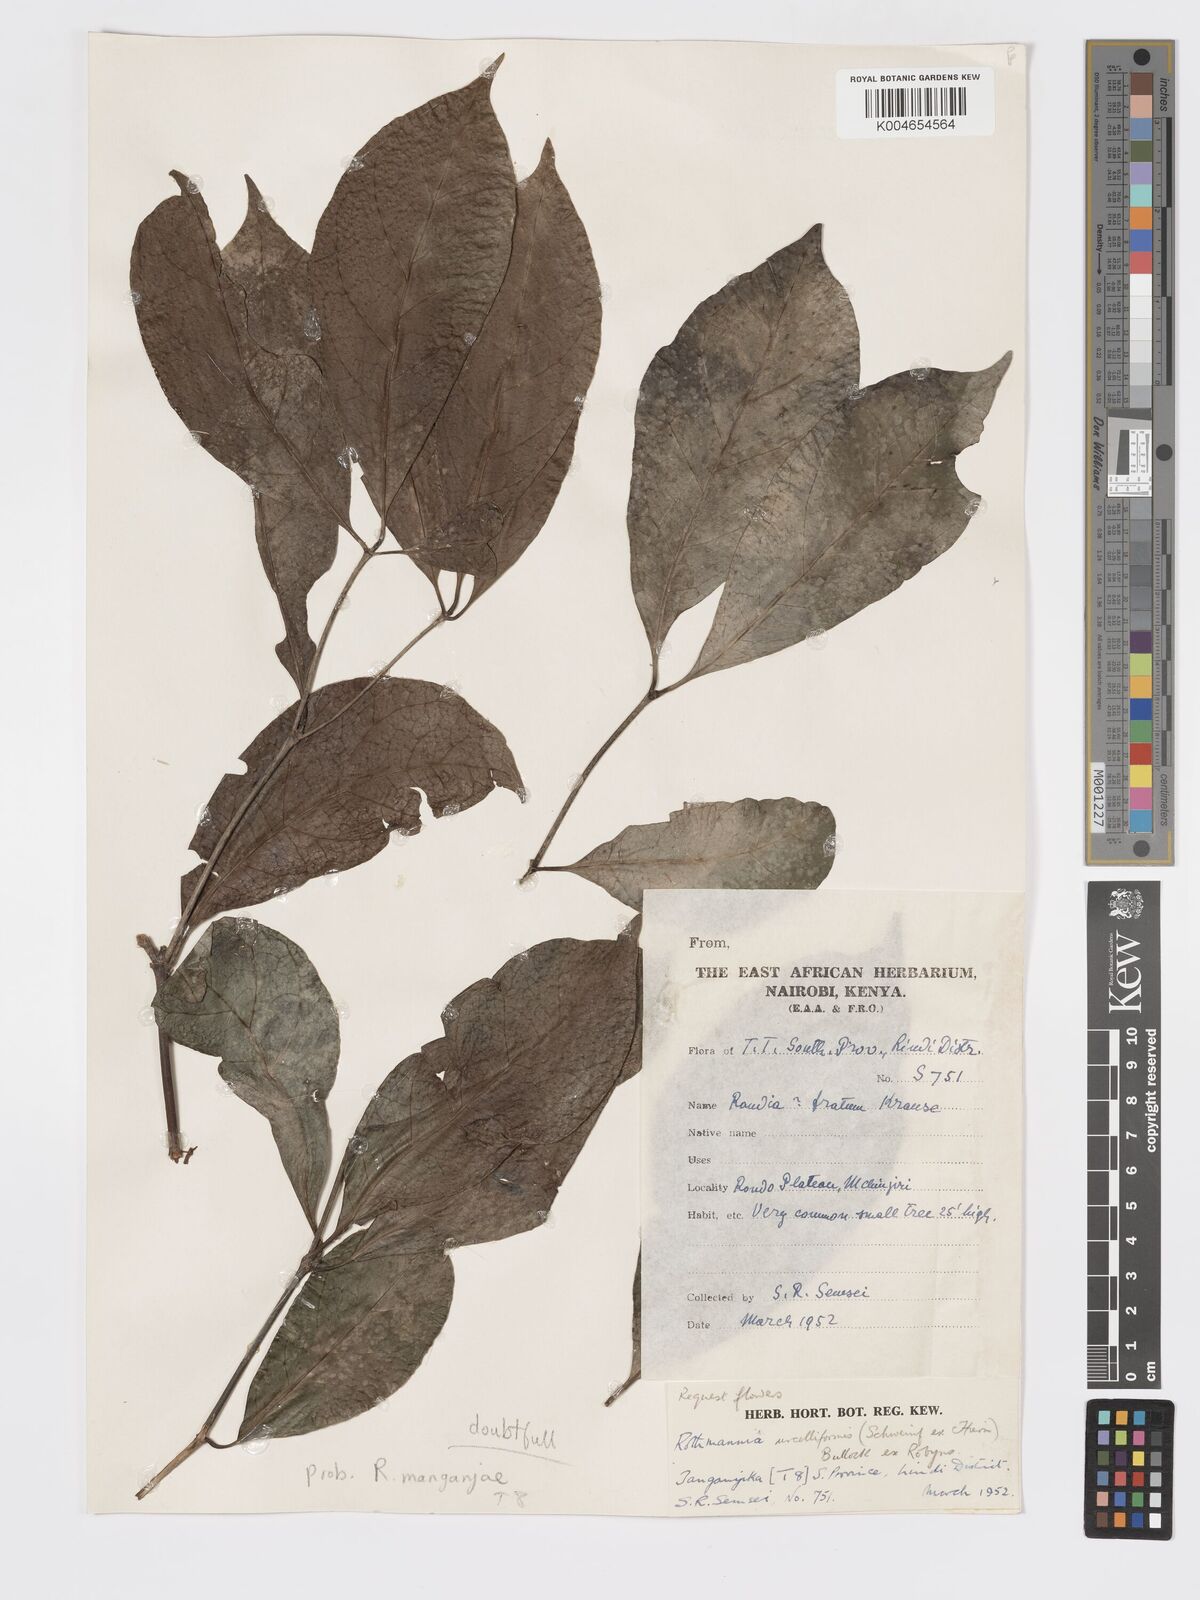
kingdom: Plantae
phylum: Tracheophyta
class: Magnoliopsida
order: Gentianales
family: Rubiaceae
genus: Rothmannia
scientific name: Rothmannia
